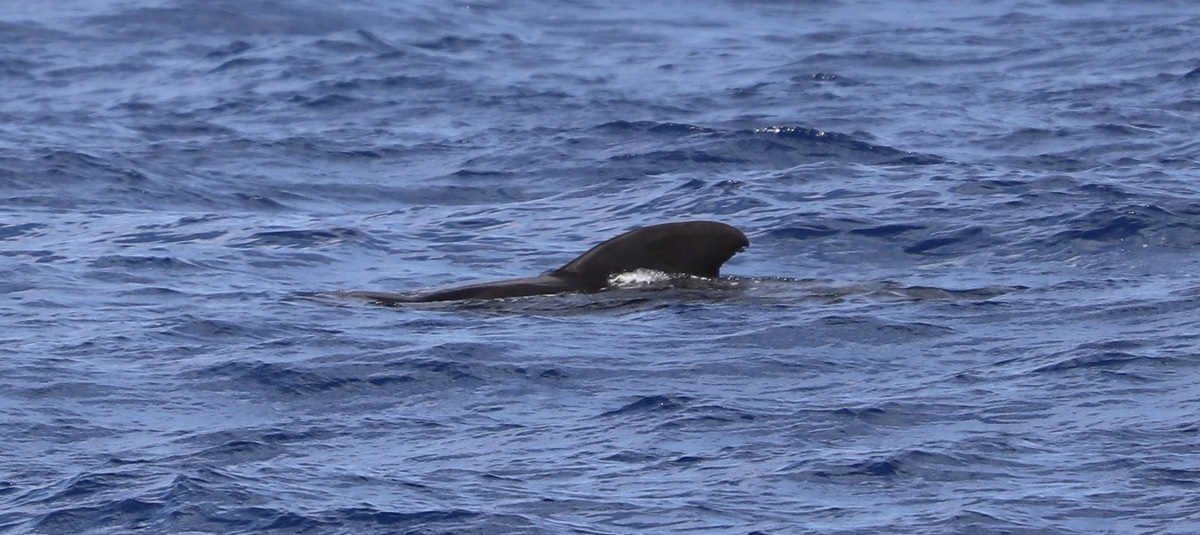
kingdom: Animalia
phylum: Chordata
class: Mammalia
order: Cetacea
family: Delphinidae
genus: Globicephala
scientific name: Globicephala macrorhynchus
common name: Short-finned Pilot Whale
